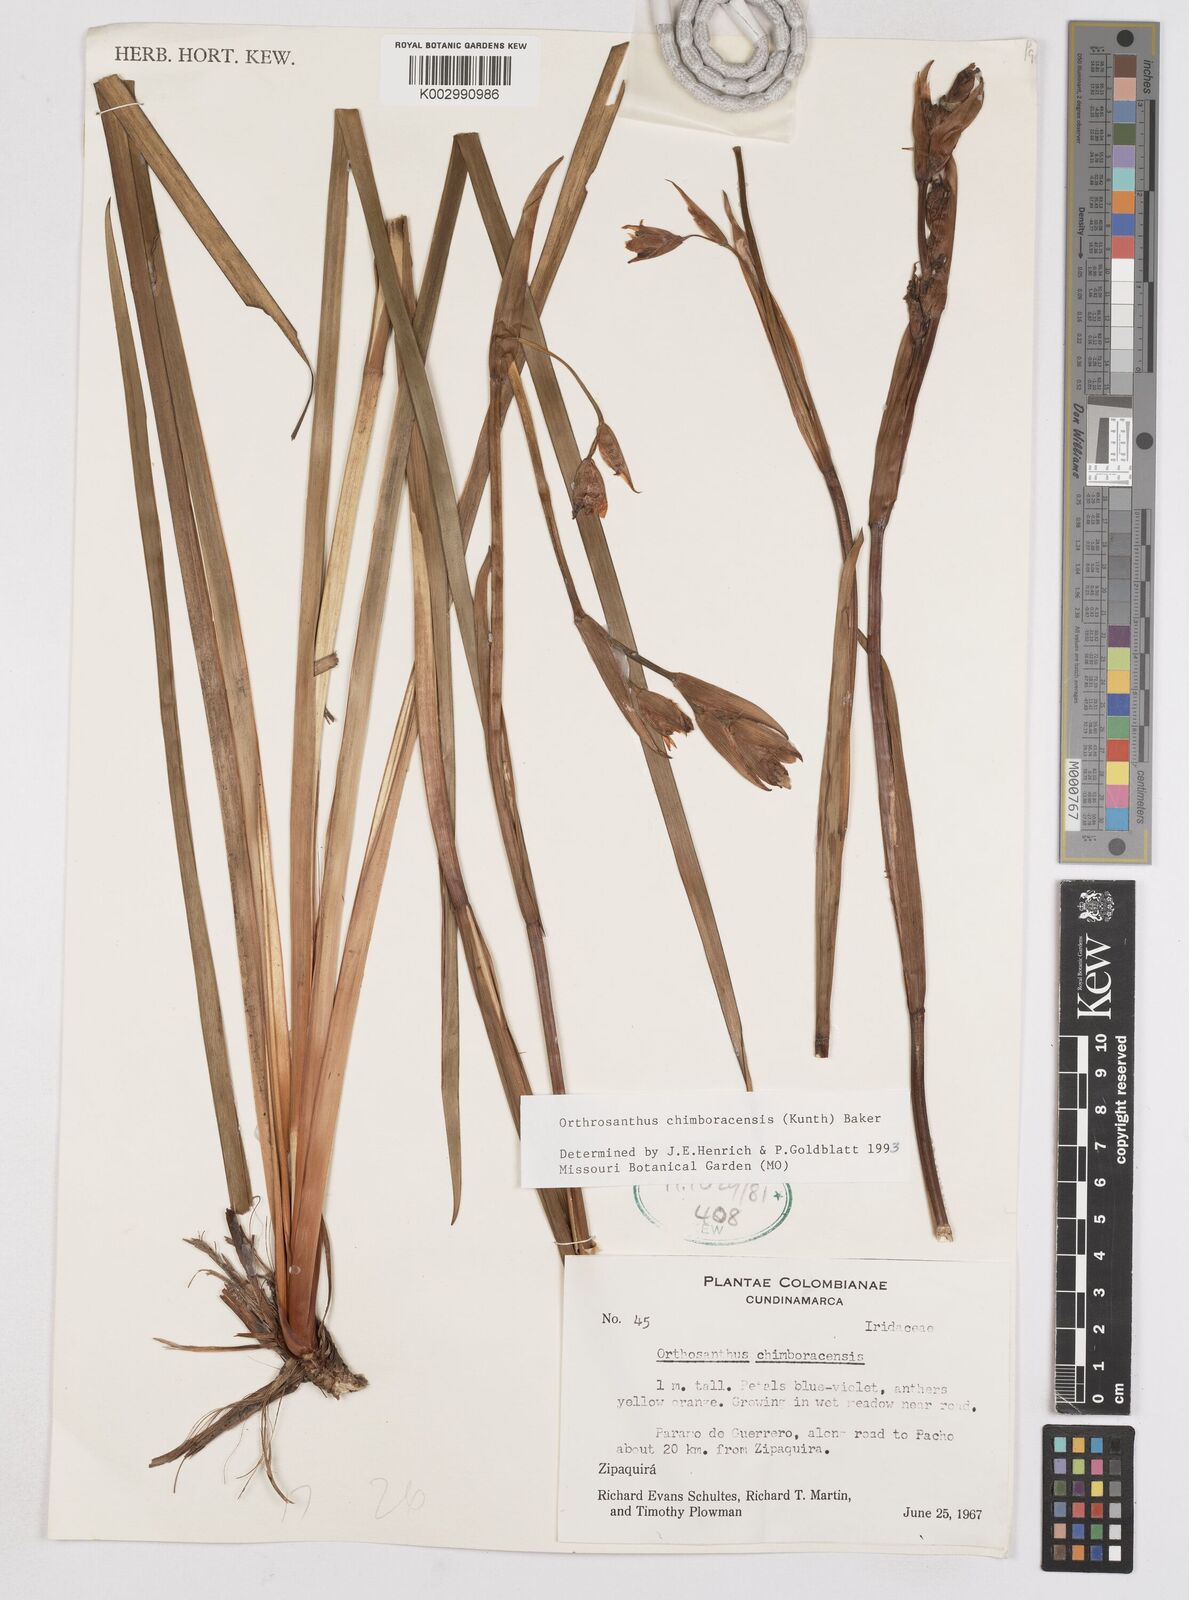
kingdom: Plantae
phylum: Tracheophyta
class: Liliopsida
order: Asparagales
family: Iridaceae
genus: Orthrosanthus
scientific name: Orthrosanthus chimboracensis
